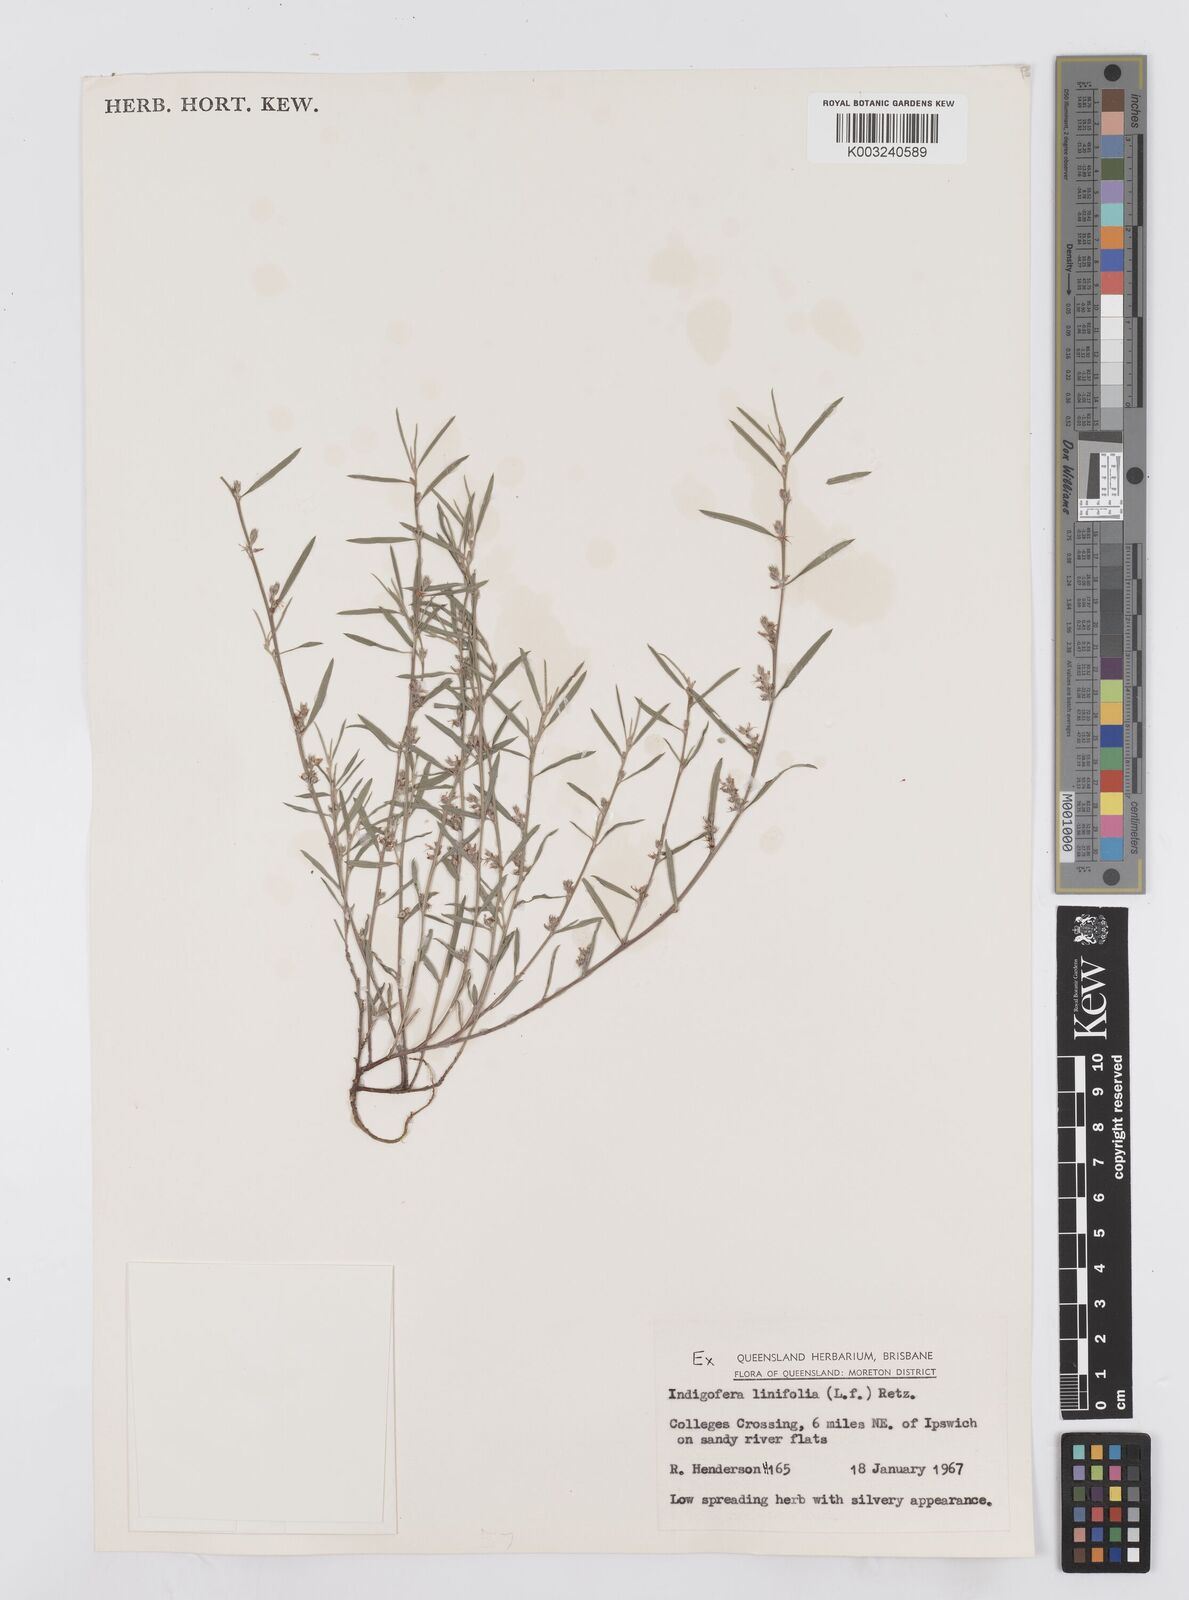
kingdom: Plantae
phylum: Tracheophyta
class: Magnoliopsida
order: Fabales
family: Fabaceae
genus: Indigofera
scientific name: Indigofera linifolia
